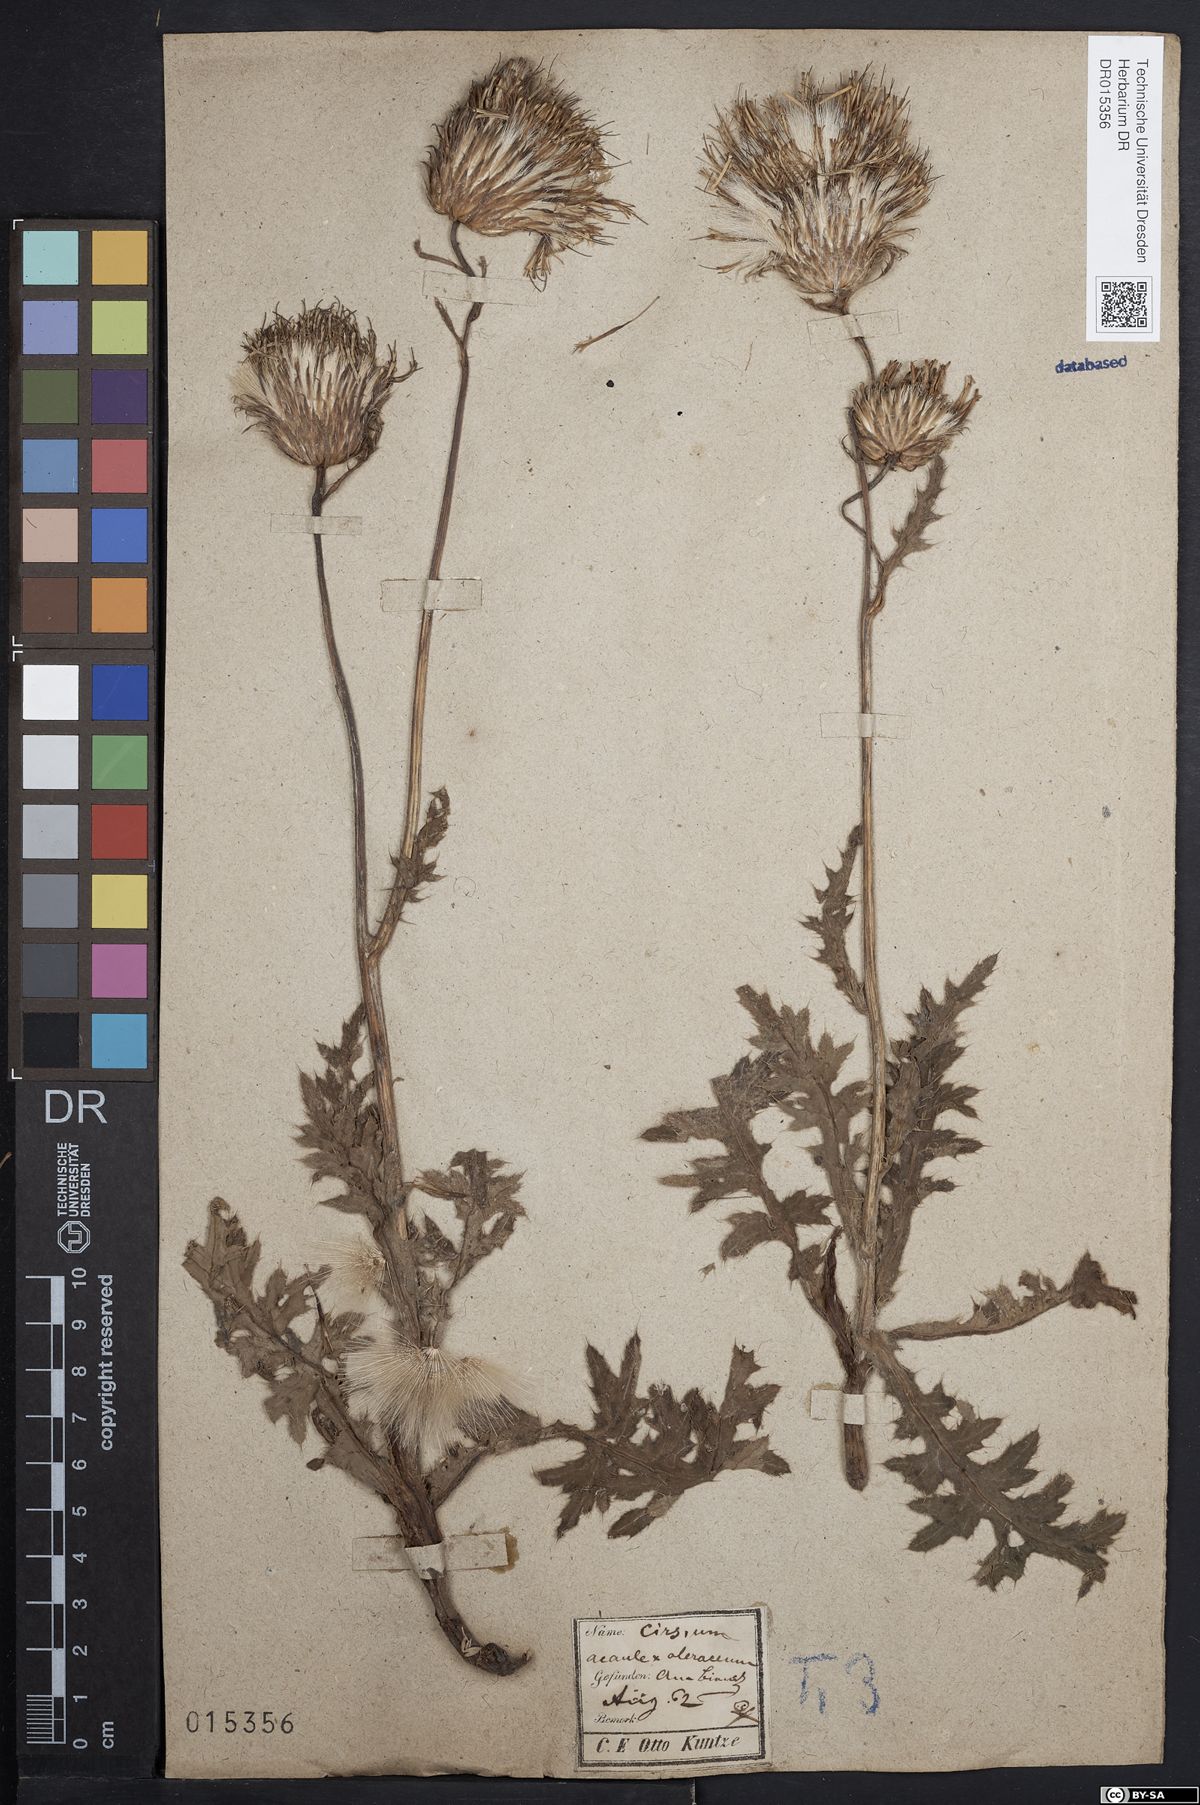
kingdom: Plantae
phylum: Tracheophyta
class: Magnoliopsida
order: Asterales
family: Asteraceae
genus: Cirsium
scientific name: Cirsium rigens
